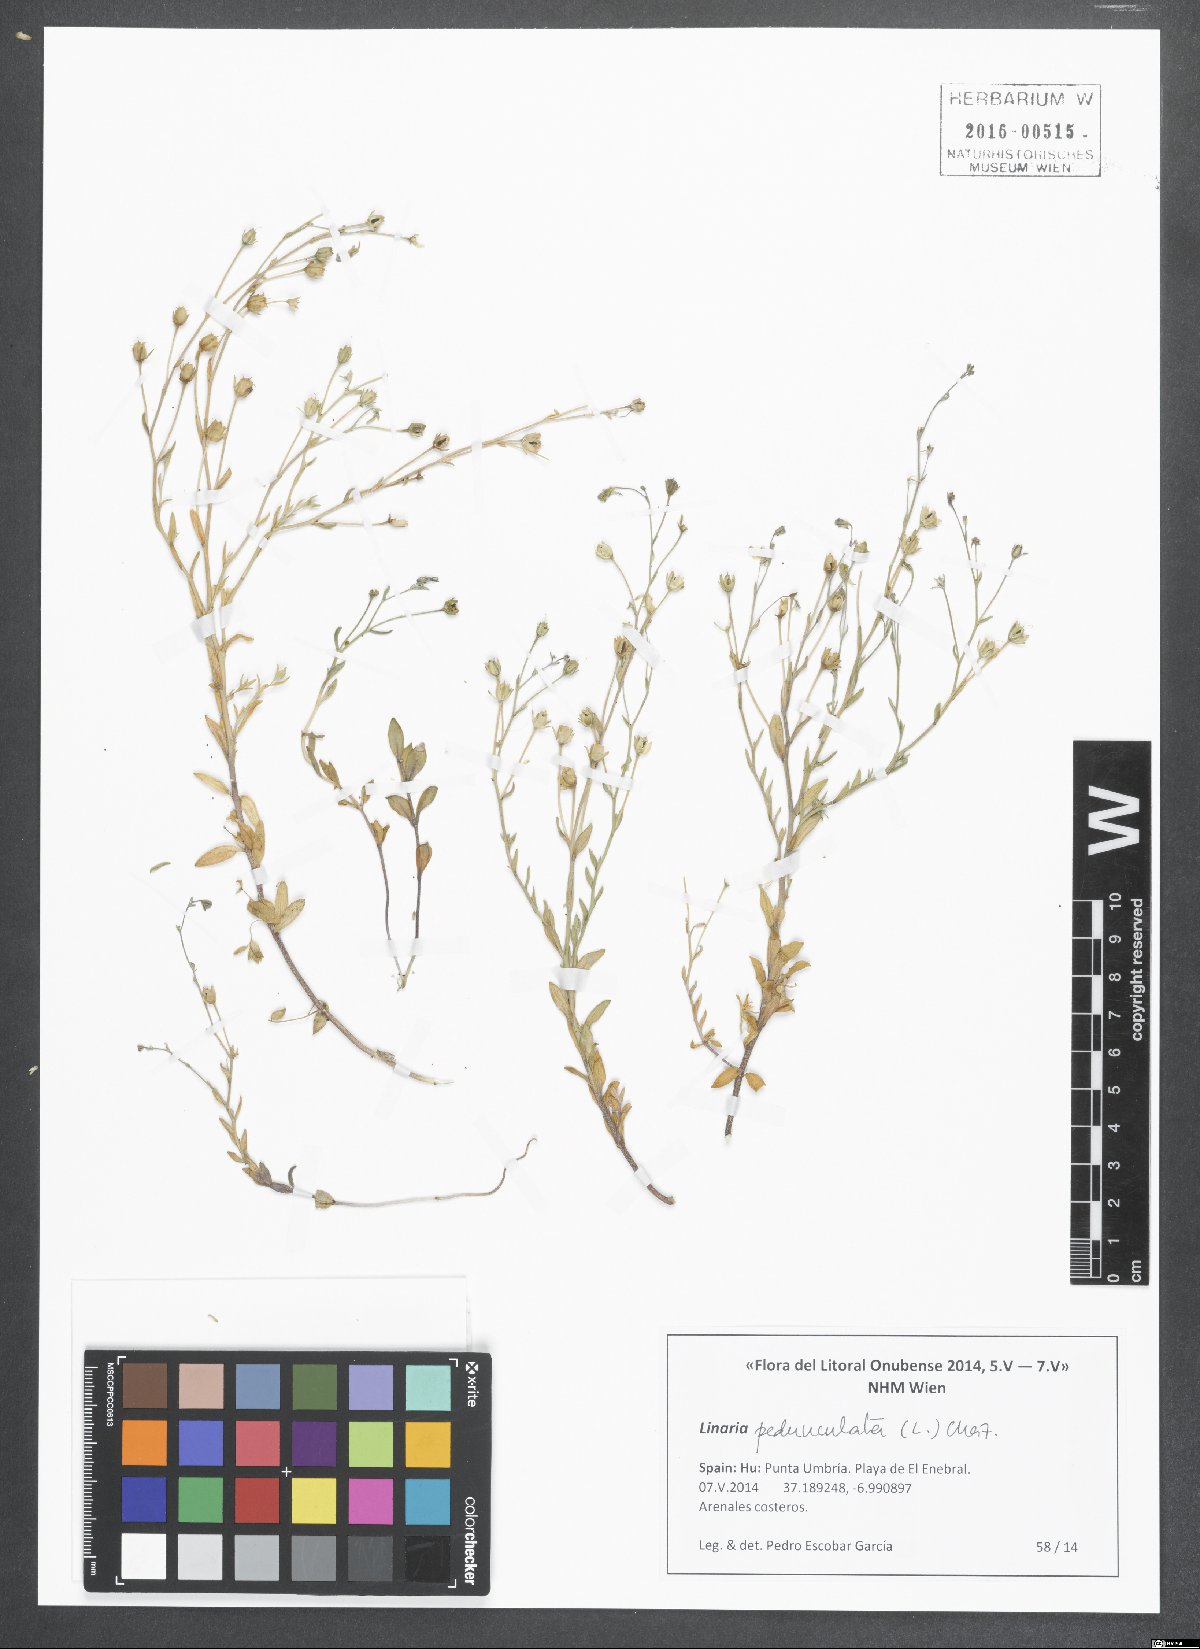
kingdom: Plantae
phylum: Tracheophyta
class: Magnoliopsida
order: Lamiales
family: Plantaginaceae
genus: Linaria
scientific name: Linaria pedunculata
